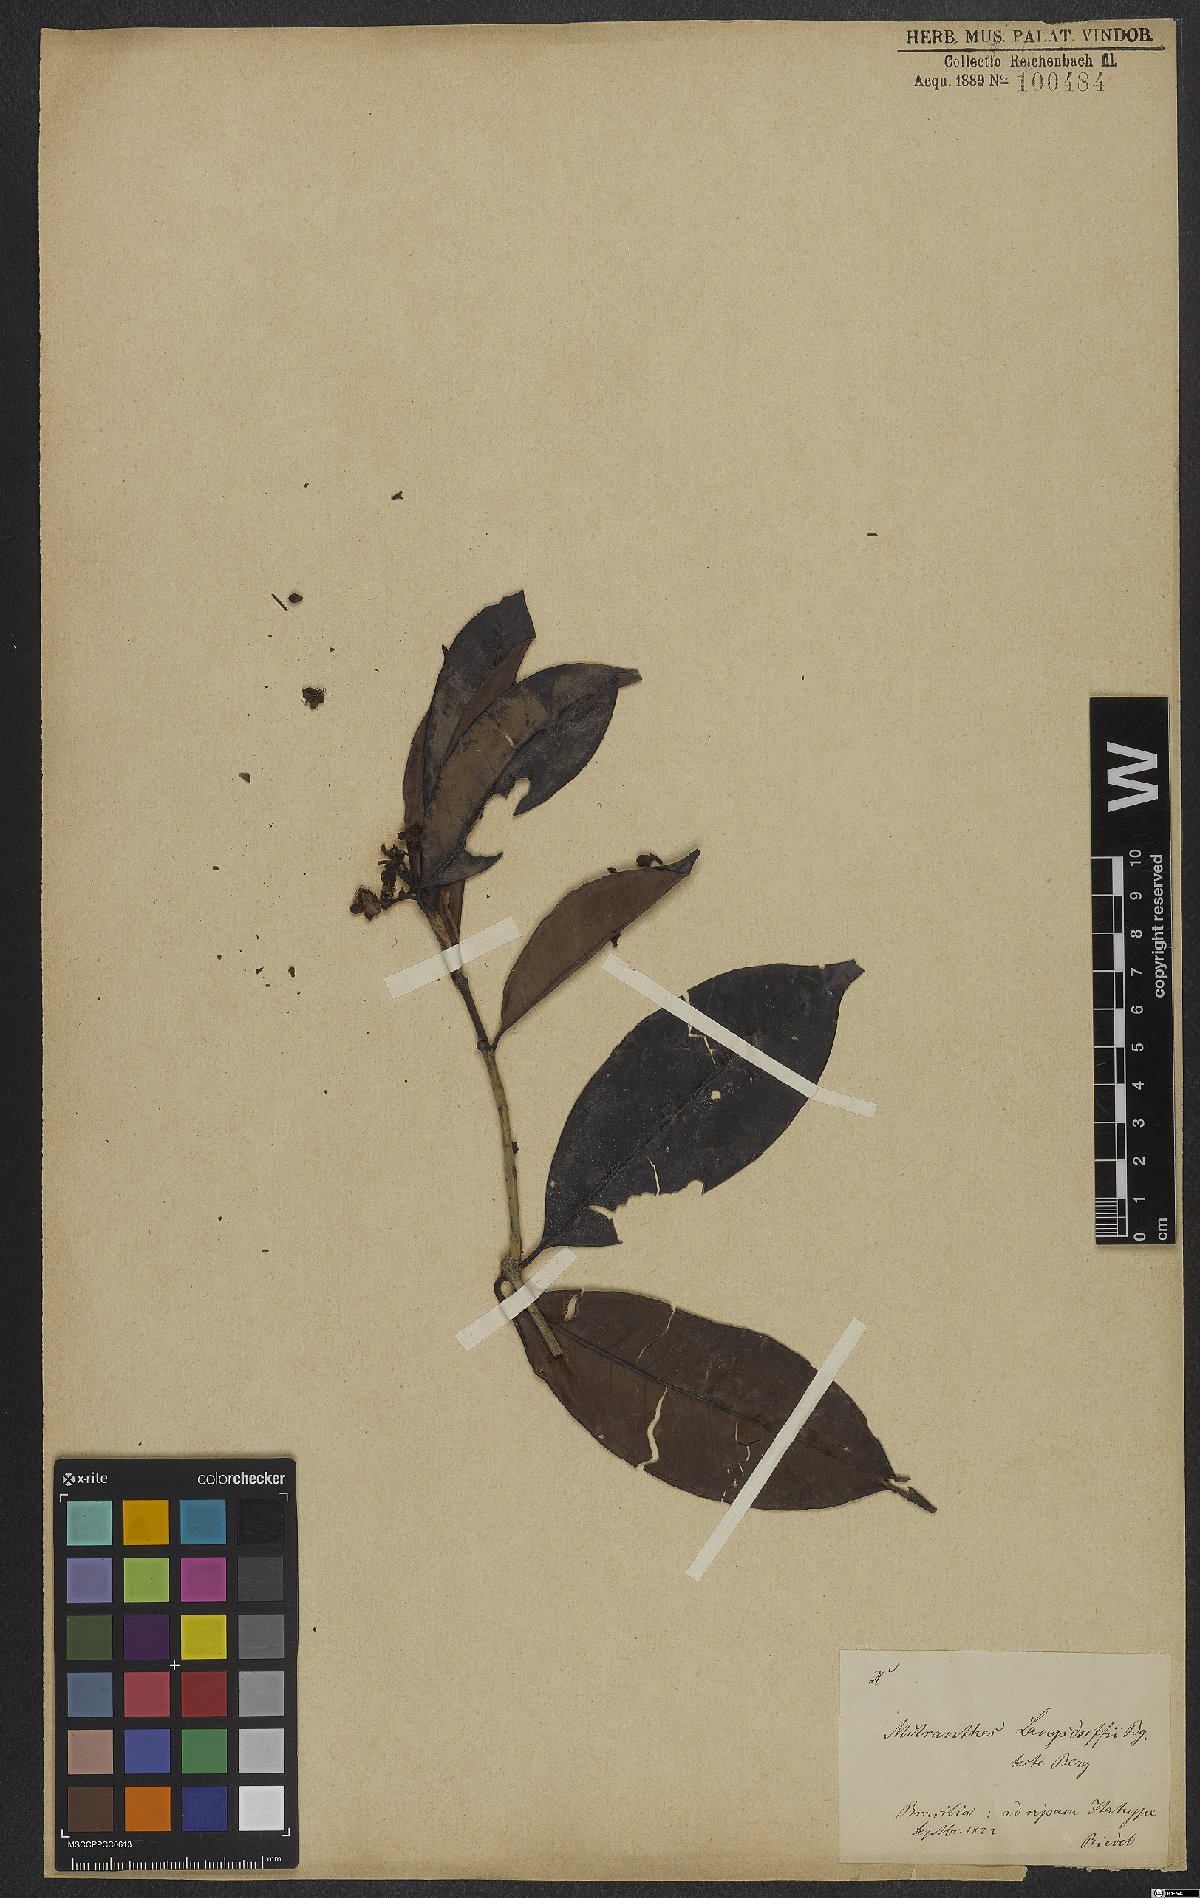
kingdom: Plantae
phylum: Tracheophyta
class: Magnoliopsida
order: Myrtales
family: Myrtaceae
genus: Neomitranthes
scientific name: Neomitranthes langsdorffii
